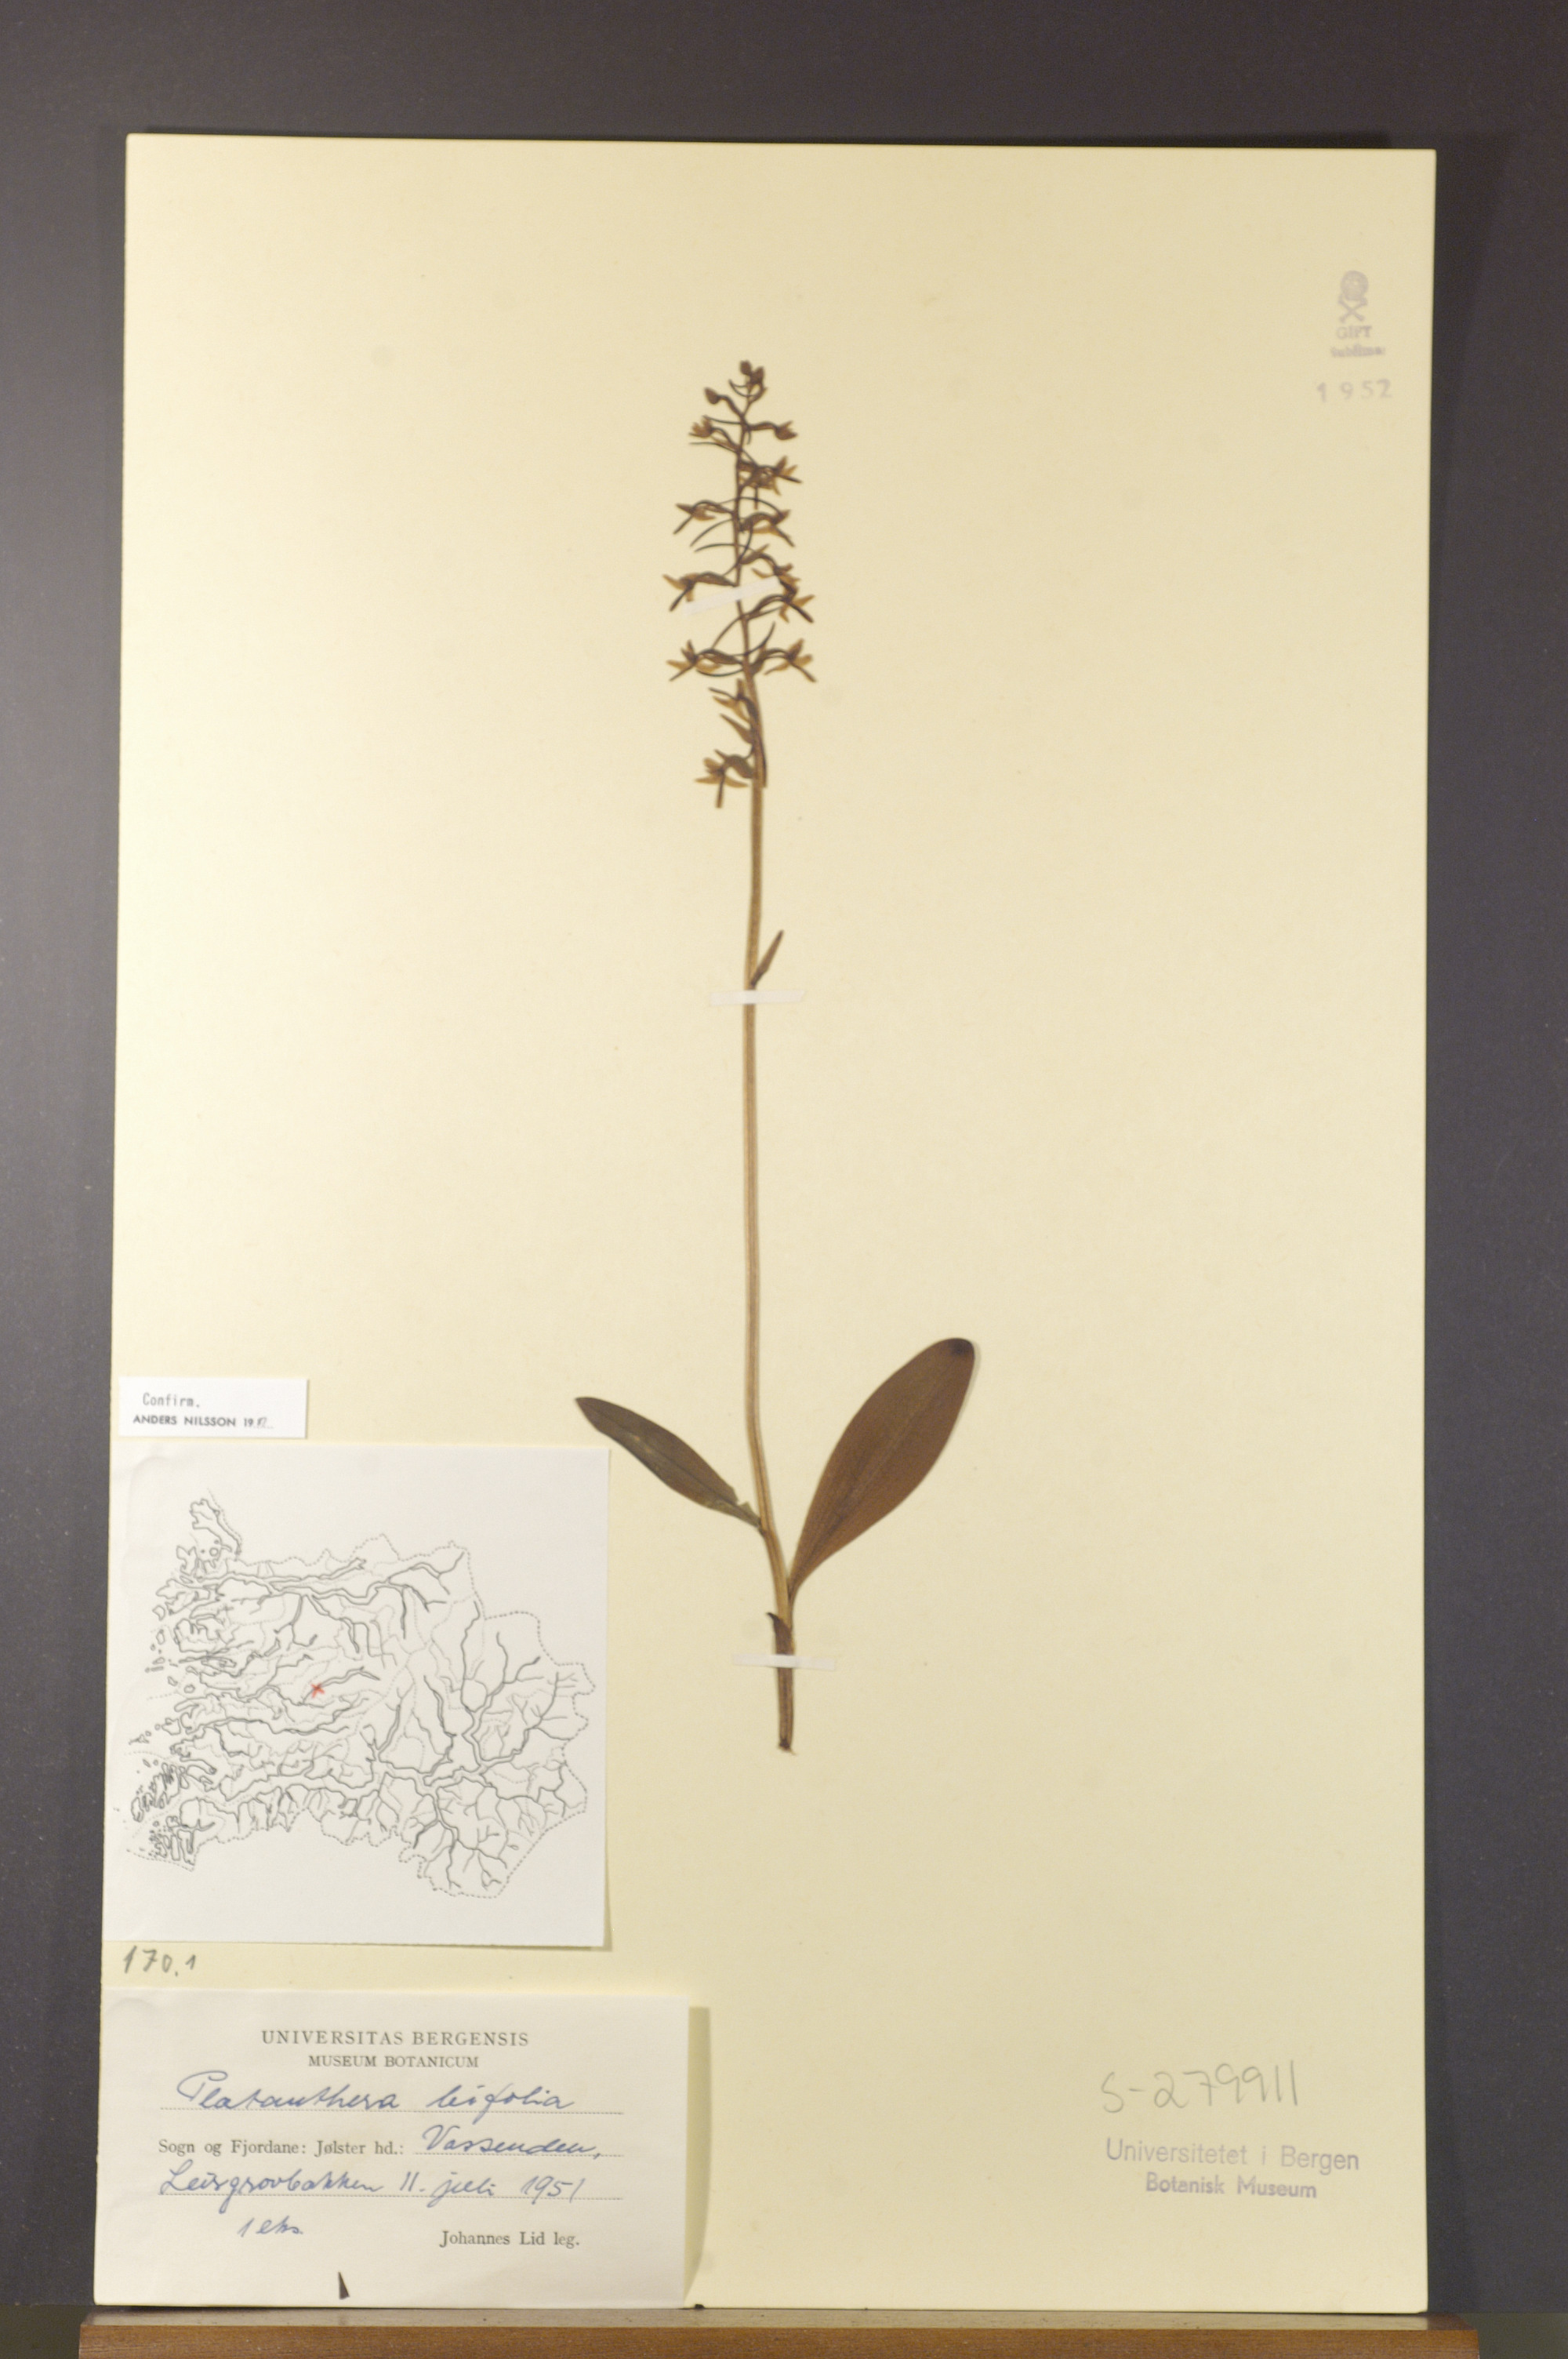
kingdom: Plantae
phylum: Tracheophyta
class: Liliopsida
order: Asparagales
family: Orchidaceae
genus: Platanthera
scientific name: Platanthera bifolia
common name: Lesser butterfly-orchid
